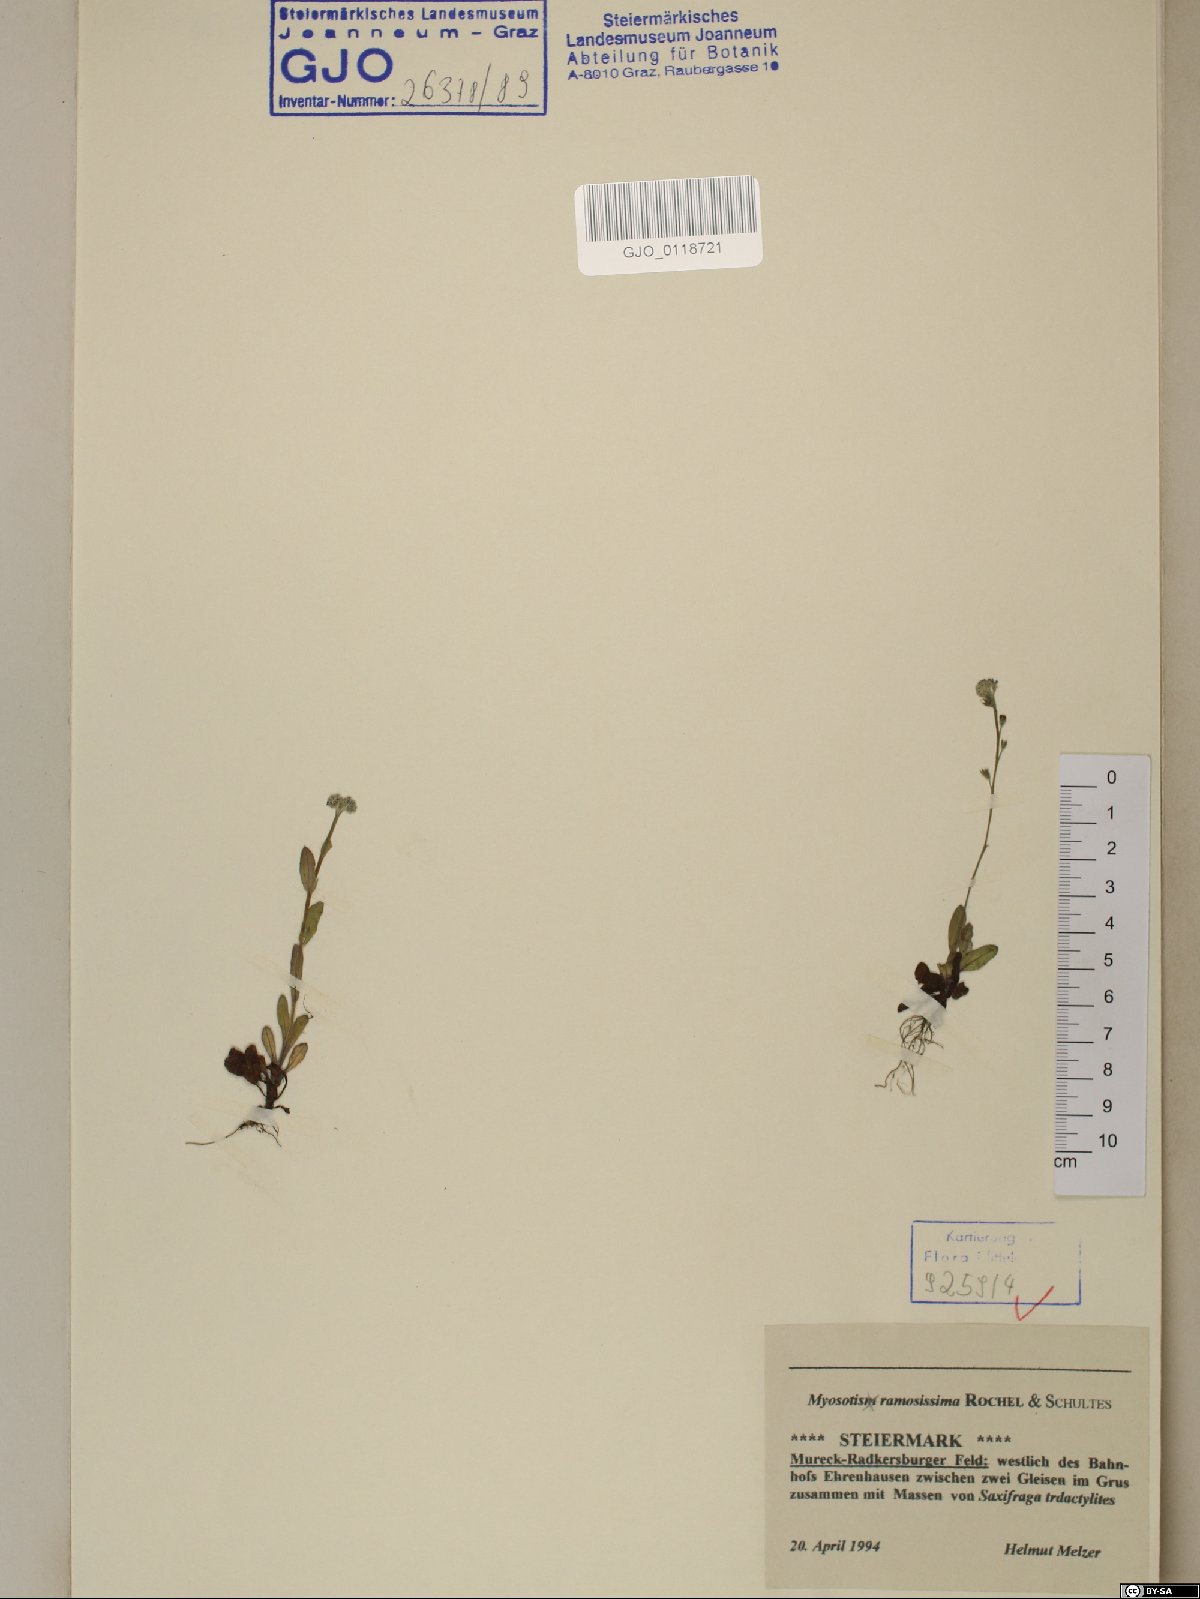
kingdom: Plantae
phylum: Tracheophyta
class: Magnoliopsida
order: Boraginales
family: Boraginaceae
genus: Myosotis
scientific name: Myosotis ramosissima
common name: Early forget-me-not
